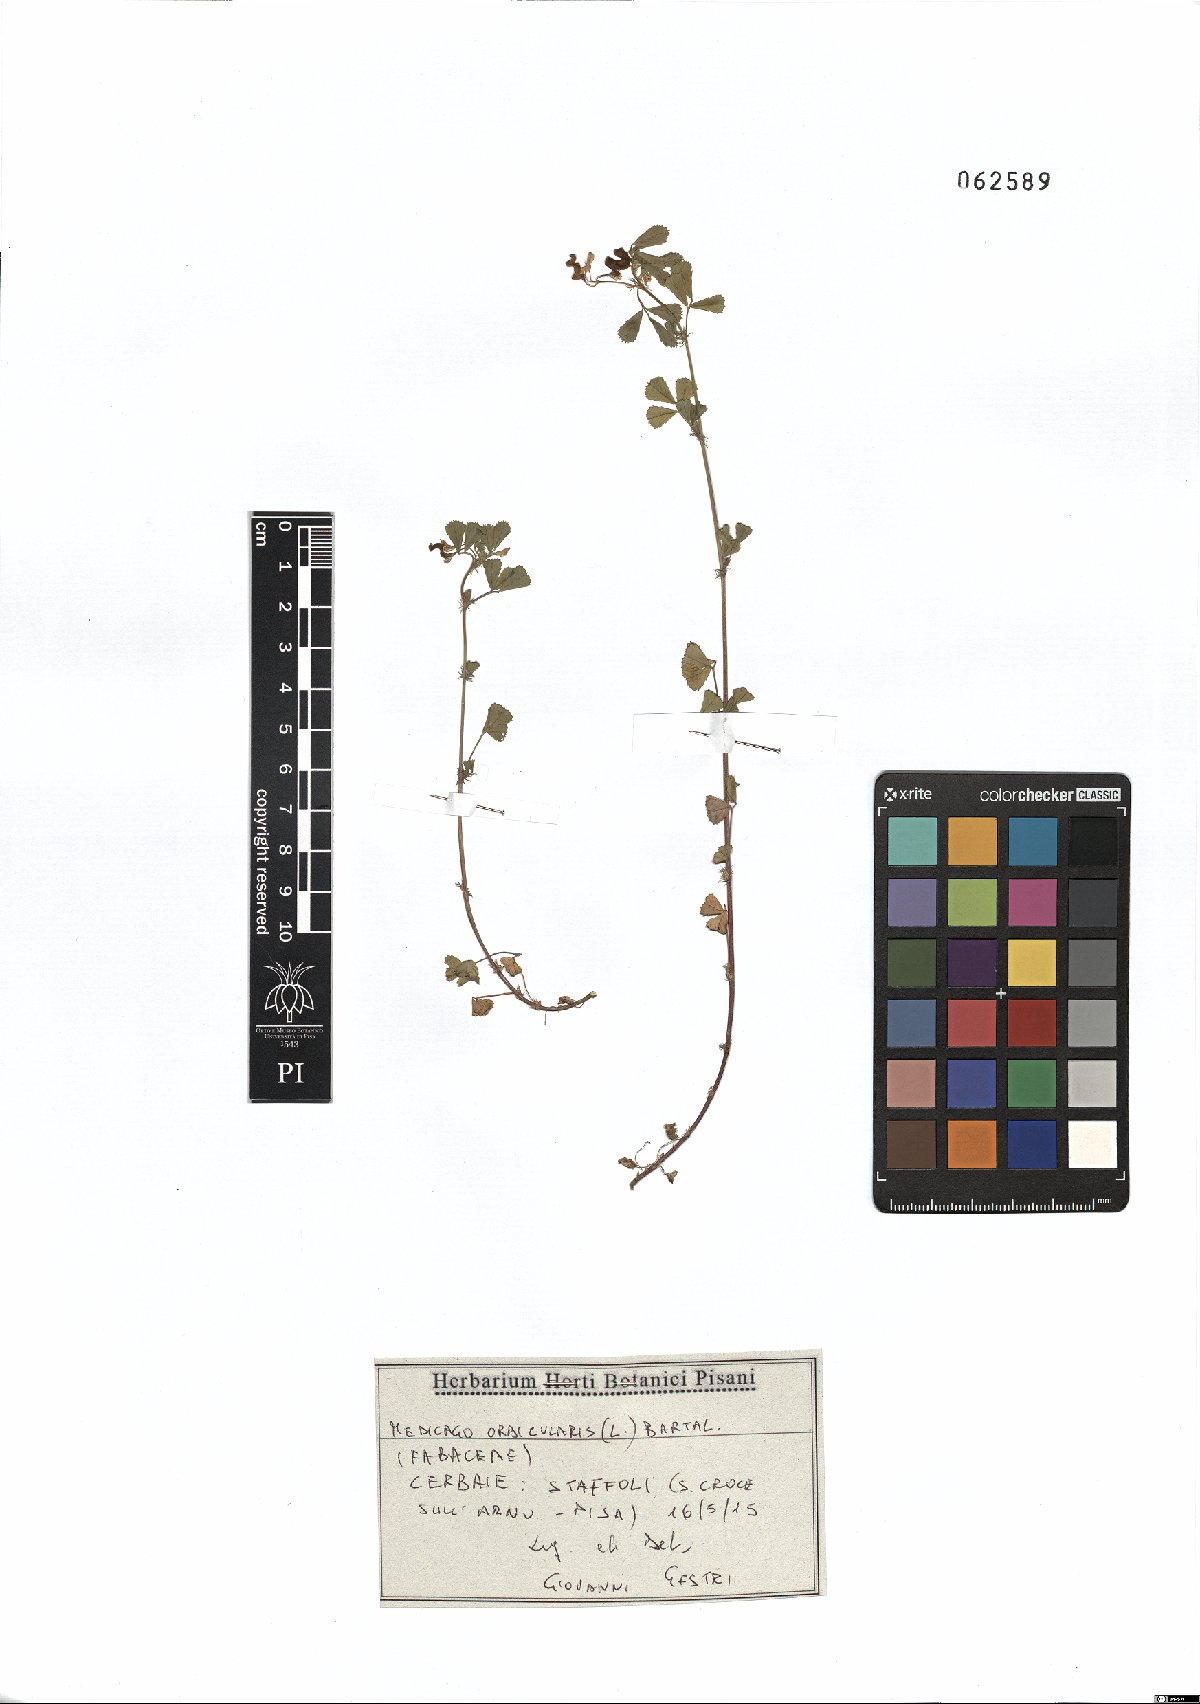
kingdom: Plantae
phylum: Tracheophyta
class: Magnoliopsida
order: Fabales
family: Fabaceae
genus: Medicago
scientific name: Medicago orbicularis
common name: Button medick
